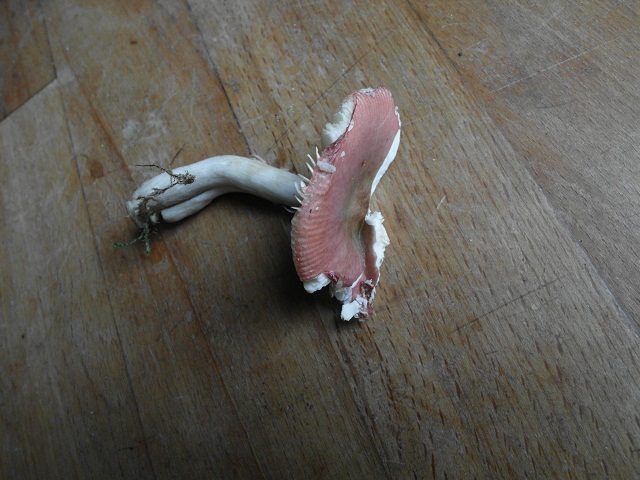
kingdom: Fungi
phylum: Basidiomycota
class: Agaricomycetes
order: Russulales
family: Russulaceae
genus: Russula
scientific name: Russula gracillima
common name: slank skørhat
